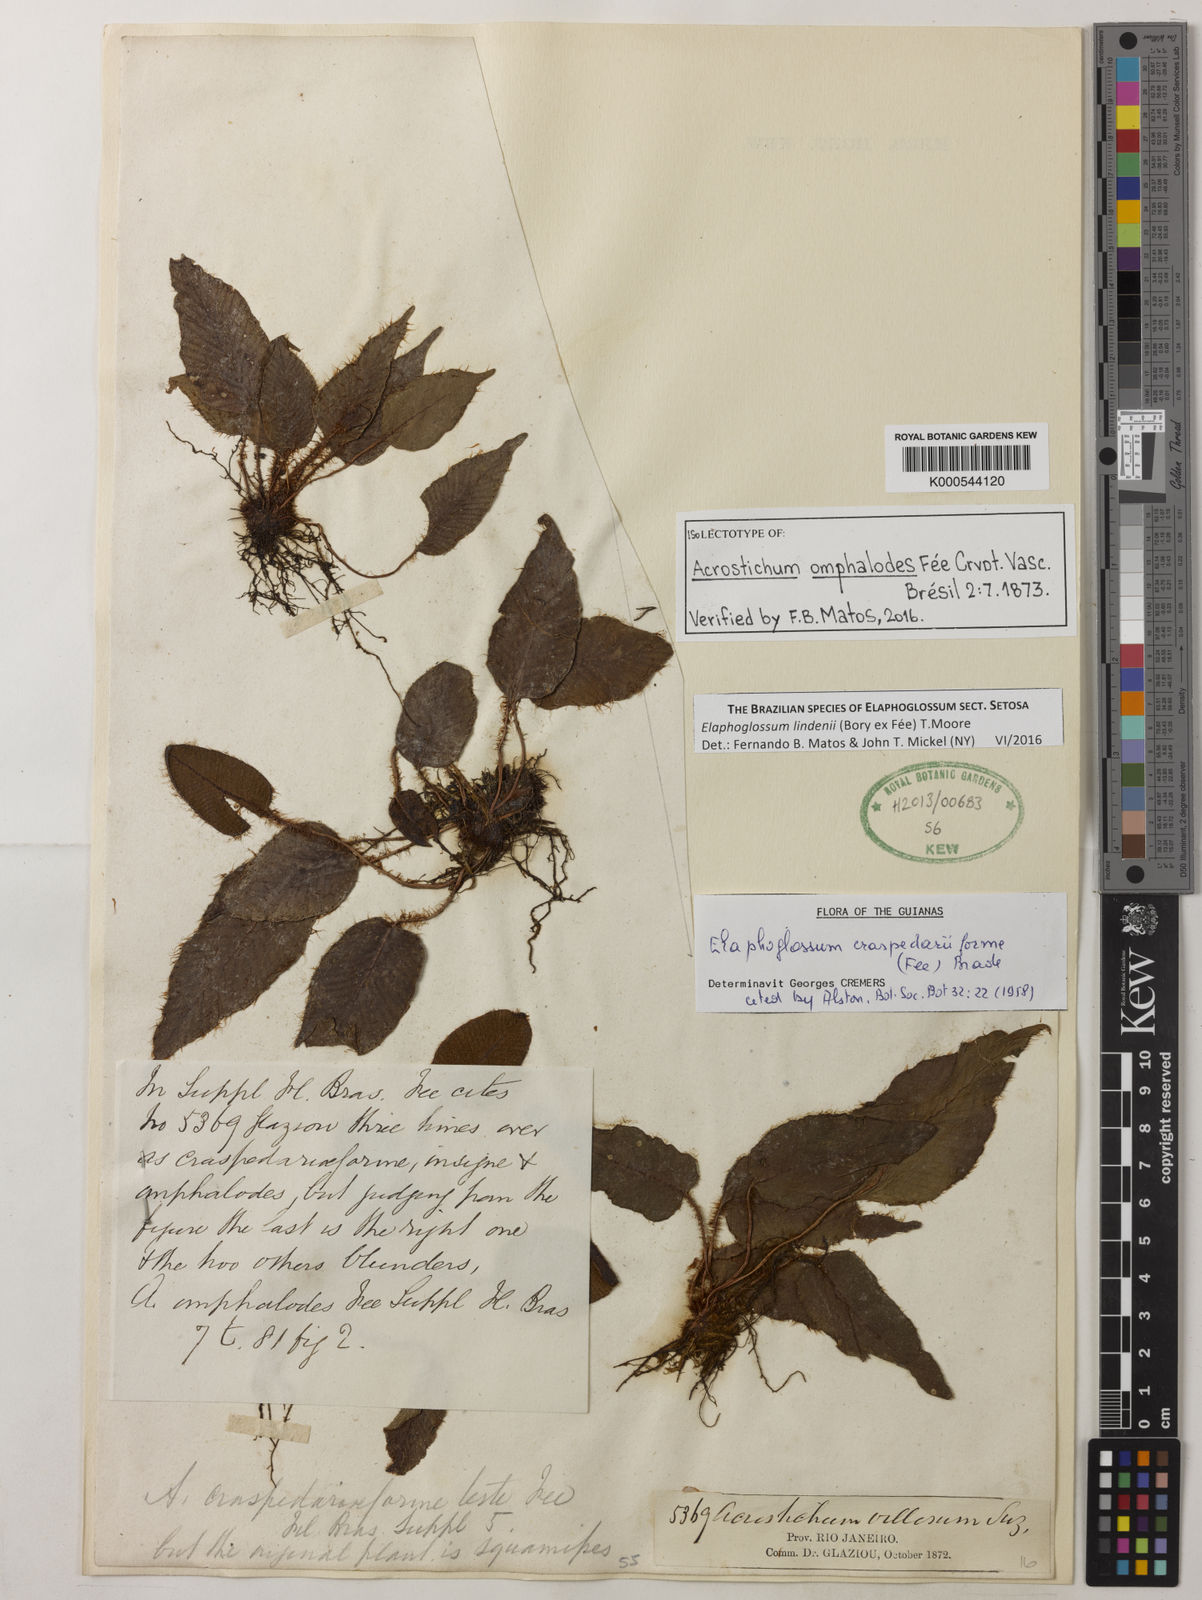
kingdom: Plantae
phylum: Tracheophyta
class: Polypodiopsida
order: Polypodiales
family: Dryopteridaceae
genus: Elaphoglossum
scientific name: Elaphoglossum lindenii
